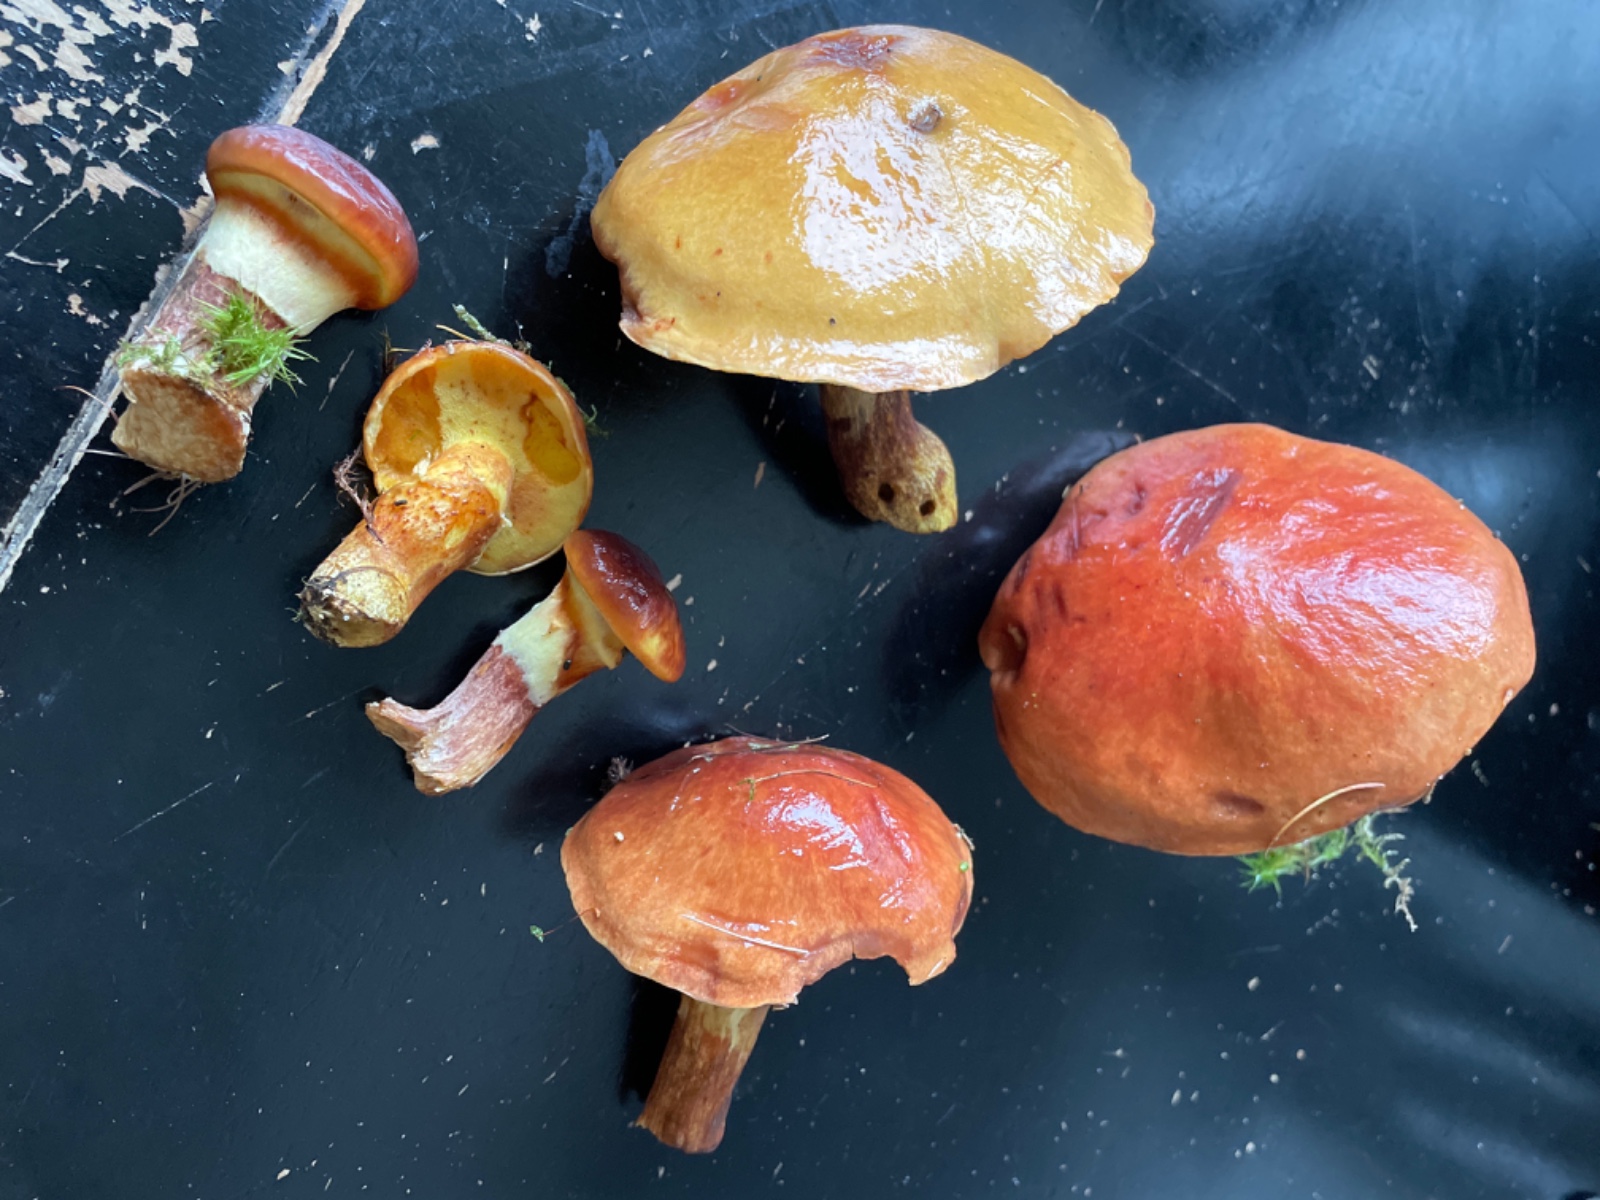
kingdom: Fungi
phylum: Basidiomycota
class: Agaricomycetes
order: Boletales
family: Suillaceae
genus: Suillus
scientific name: Suillus grevillei
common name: lærke-slimrørhat
